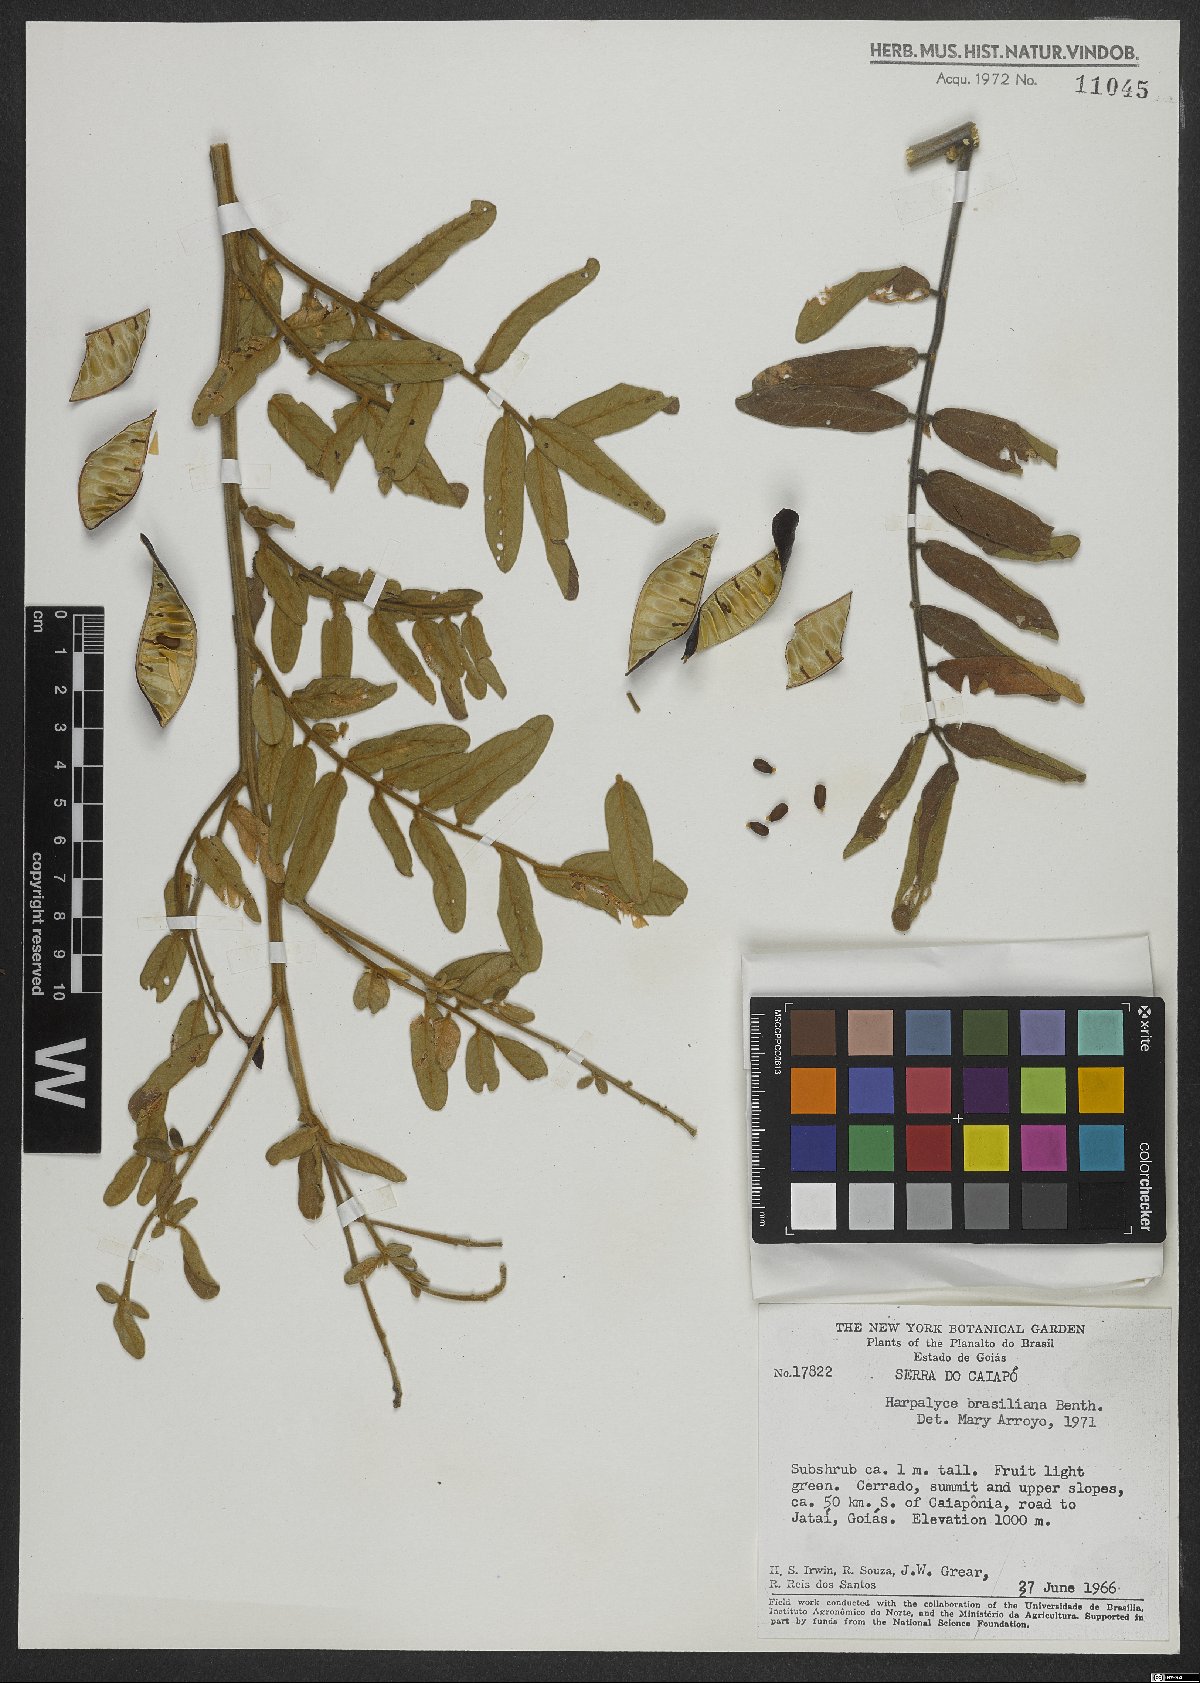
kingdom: Plantae
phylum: Tracheophyta
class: Magnoliopsida
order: Fabales
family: Fabaceae
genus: Harpalyce
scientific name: Harpalyce brasiliana
